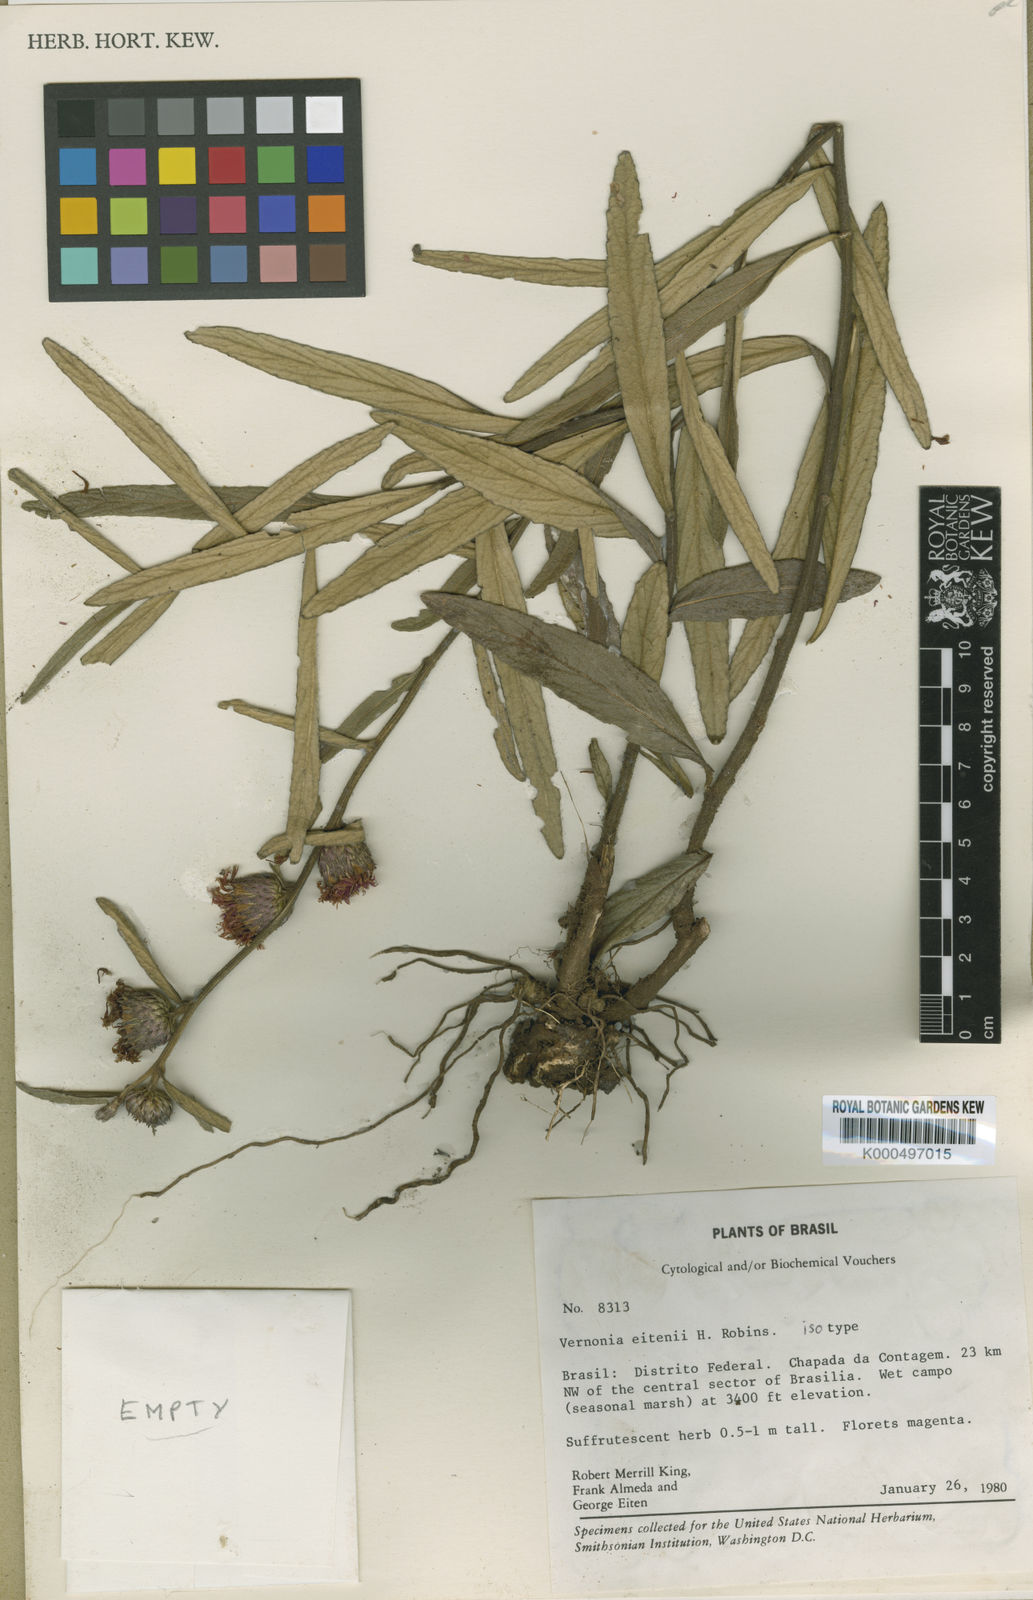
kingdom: Plantae
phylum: Tracheophyta
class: Magnoliopsida
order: Asterales
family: Asteraceae
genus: Lessingianthus
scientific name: Lessingianthus eitenii
